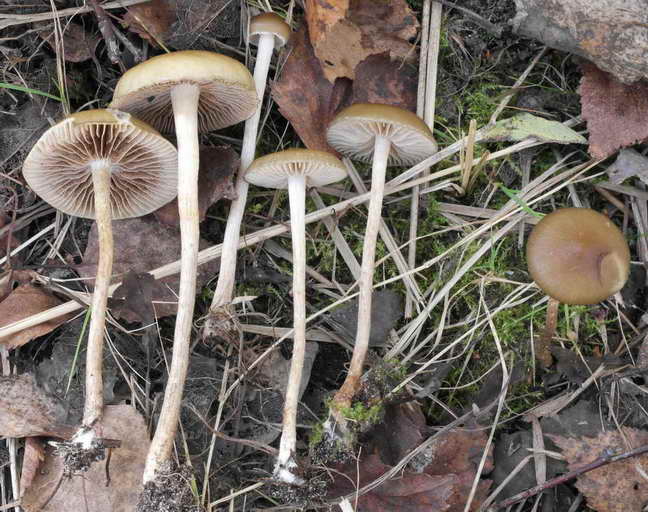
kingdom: Fungi
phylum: Basidiomycota
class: Agaricomycetes
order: Agaricales
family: Strophariaceae
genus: Hypholoma
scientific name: Hypholoma myosotis
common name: slimet svovlhat
